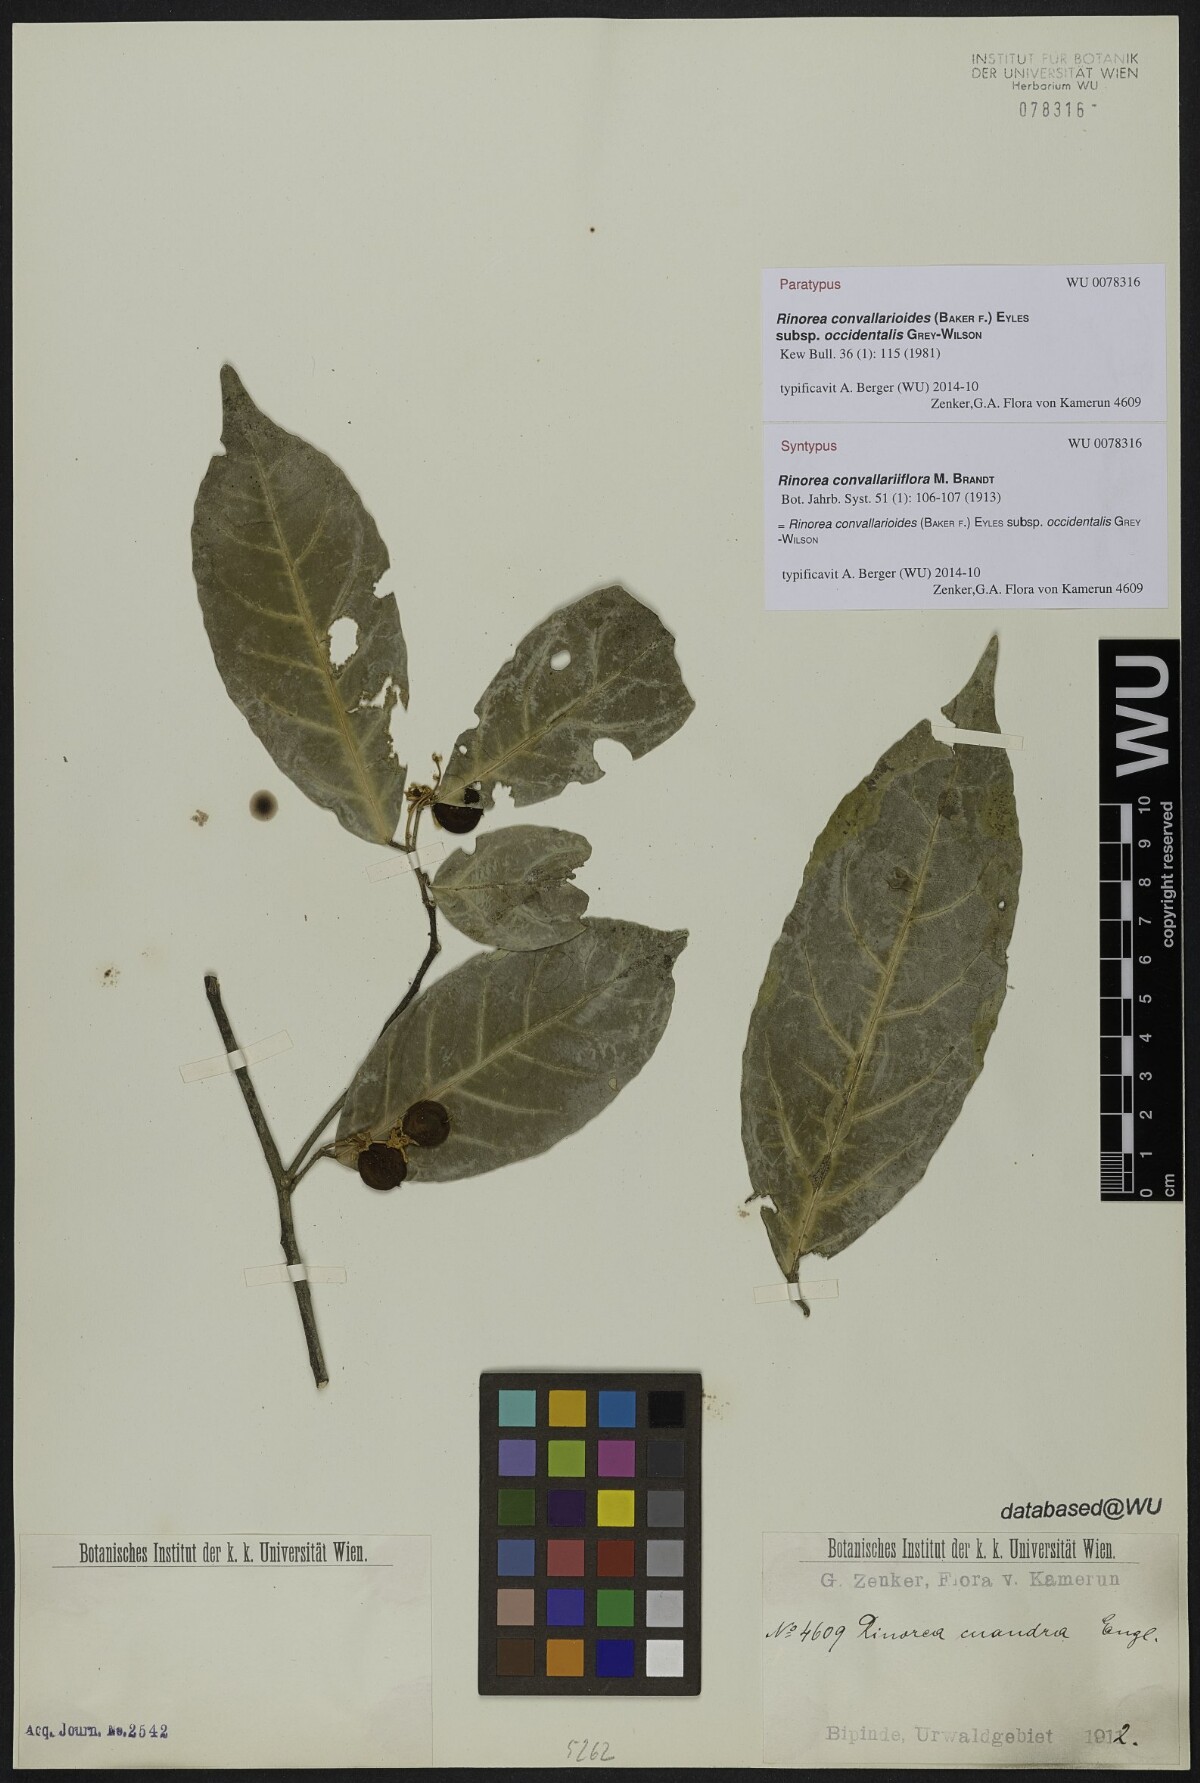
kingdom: Plantae
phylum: Tracheophyta
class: Magnoliopsida
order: Malpighiales
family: Violaceae
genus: Rinorea
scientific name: Rinorea convallarioides
